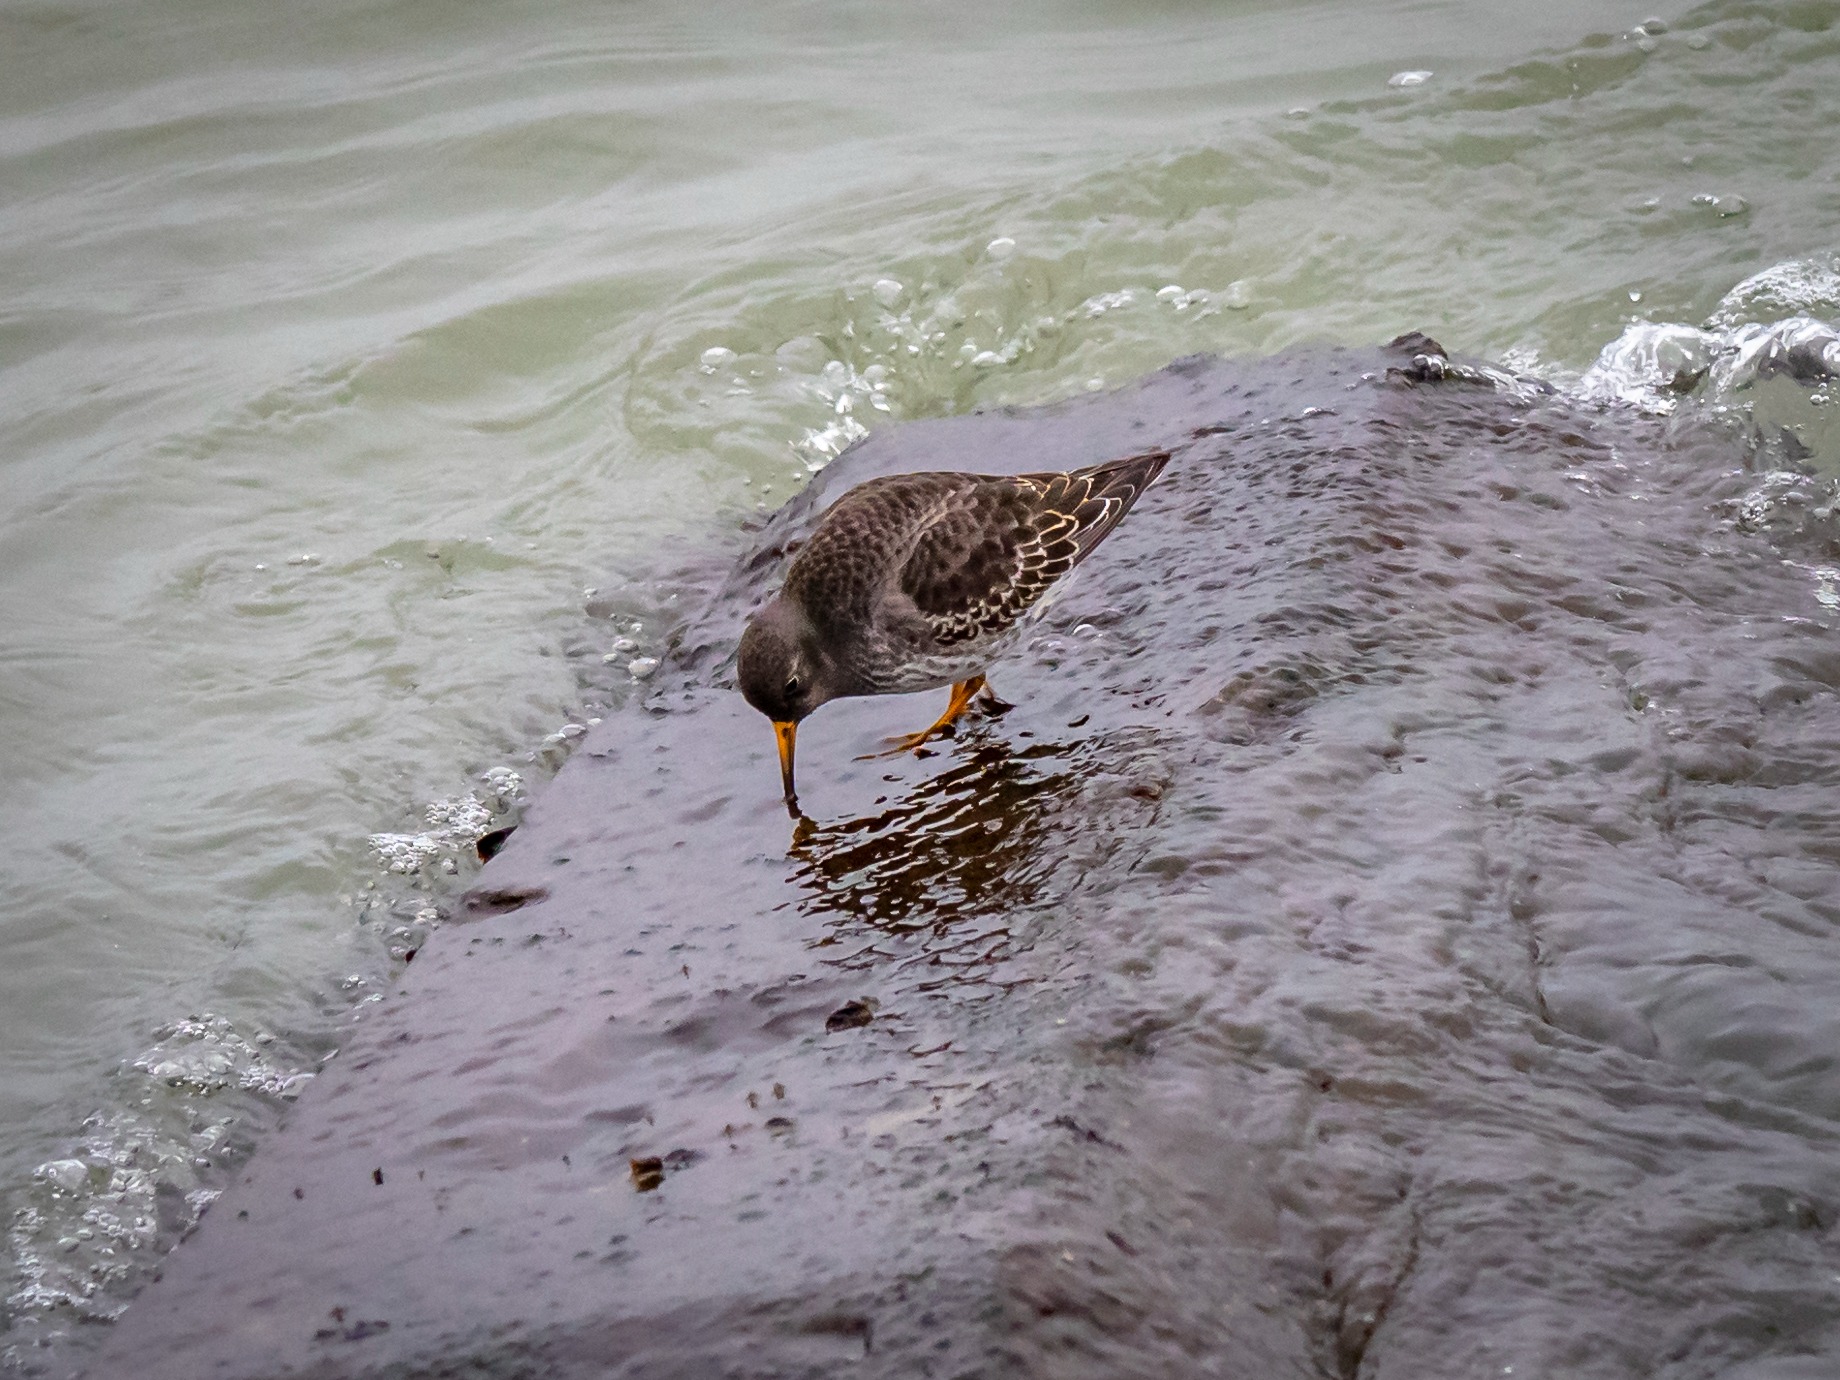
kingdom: Animalia
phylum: Chordata
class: Aves
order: Charadriiformes
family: Scolopacidae
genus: Calidris
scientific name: Calidris maritima
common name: Sortgrå ryle
